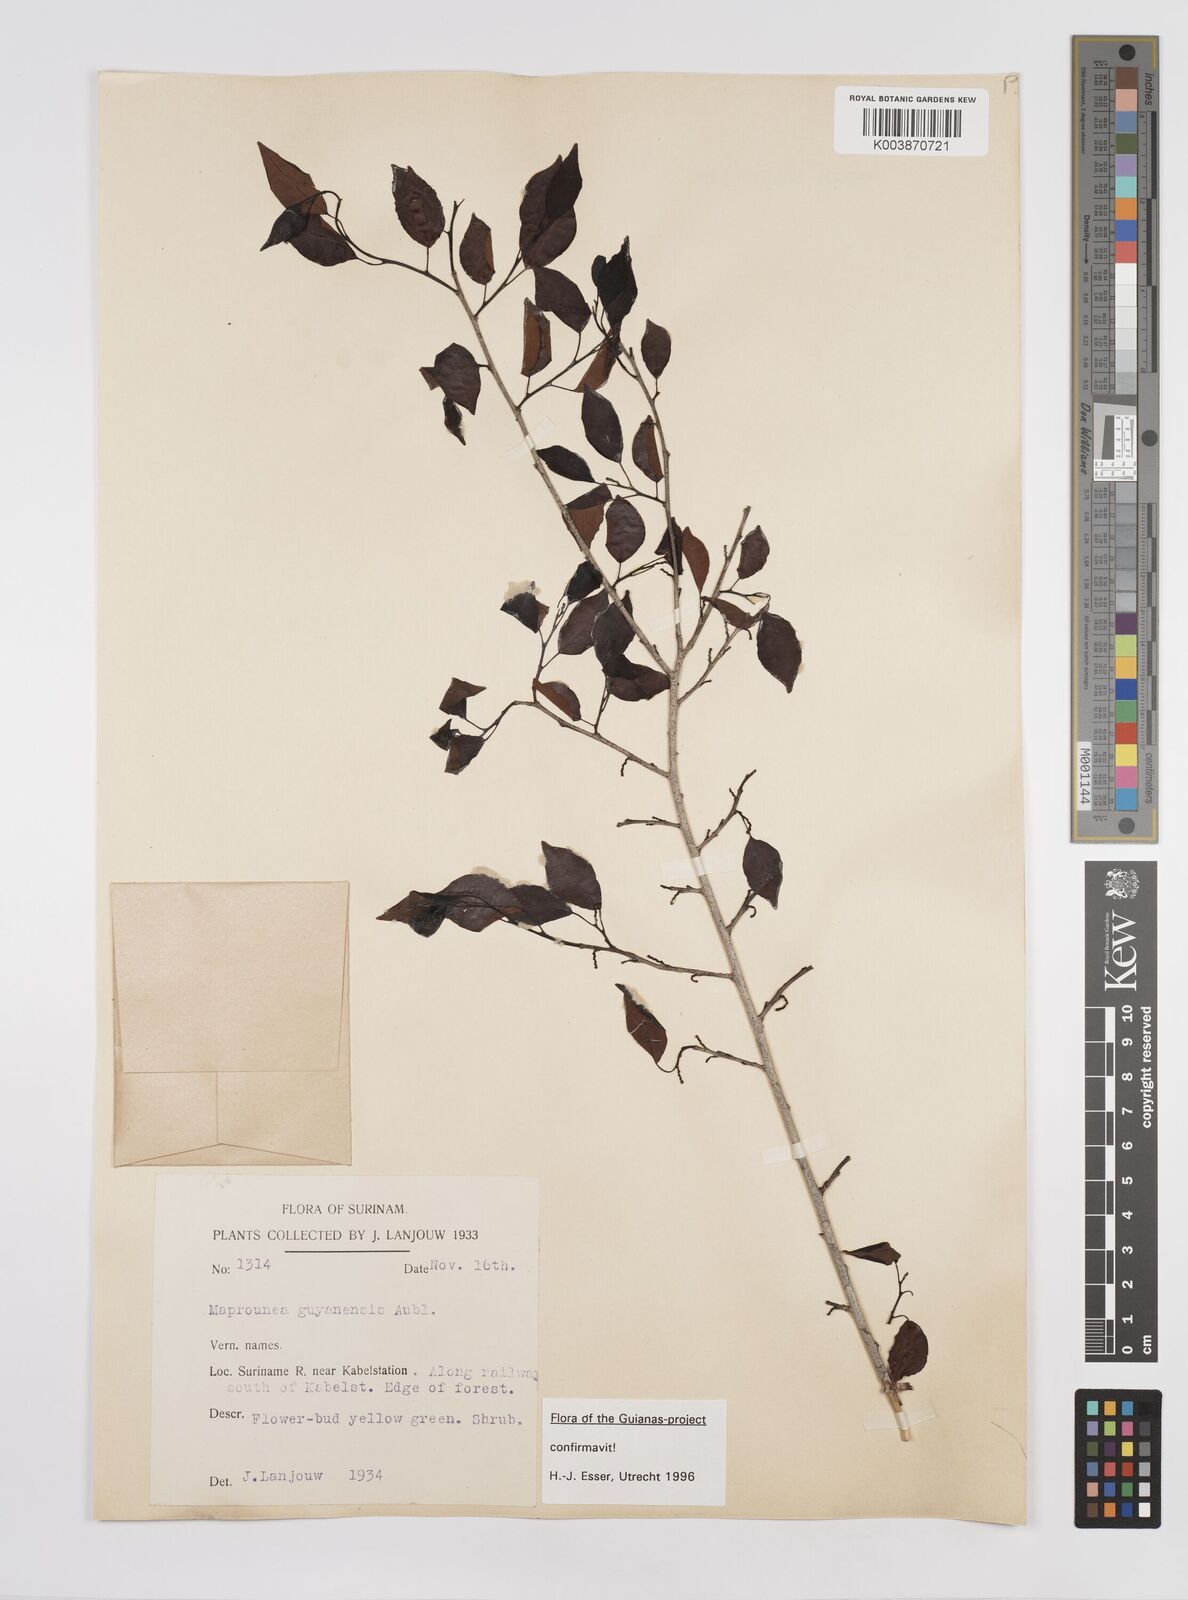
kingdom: Plantae
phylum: Tracheophyta
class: Magnoliopsida
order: Malpighiales
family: Euphorbiaceae
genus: Maprounea
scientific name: Maprounea guianensis
